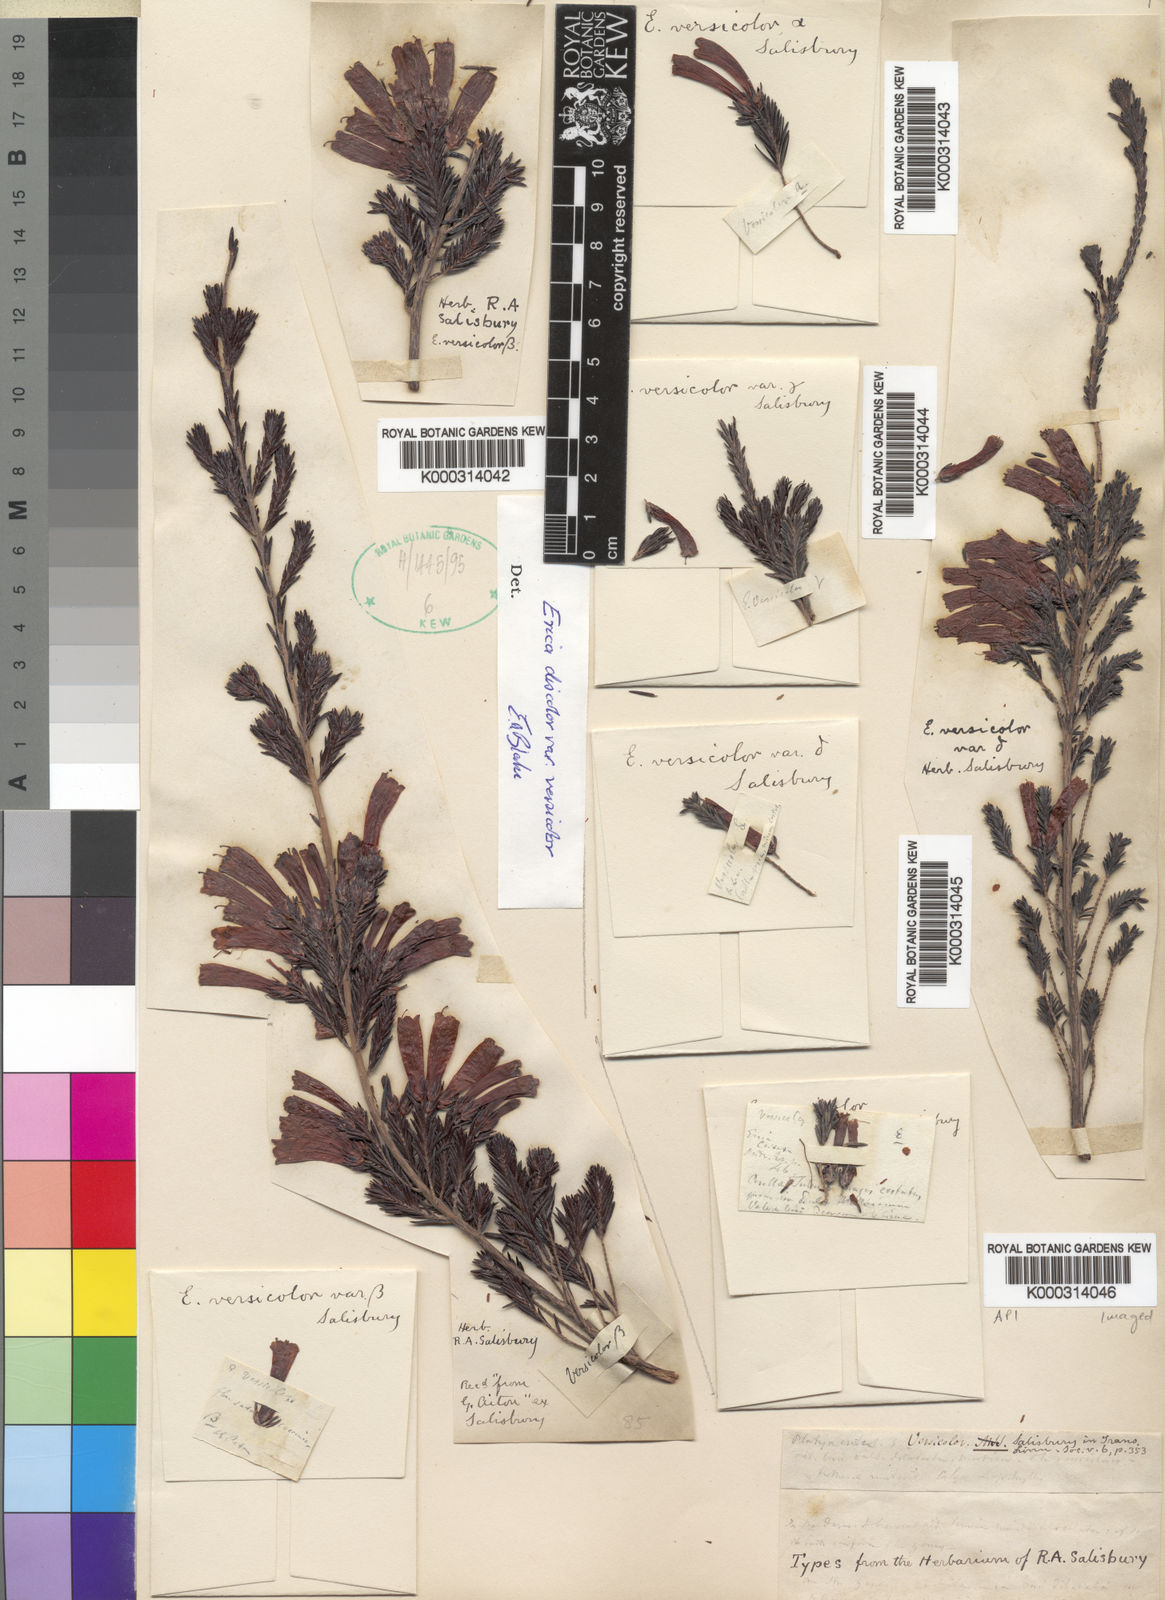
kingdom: Plantae
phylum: Tracheophyta
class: Magnoliopsida
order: Ericales
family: Ericaceae
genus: Erica
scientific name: Erica versicolor
